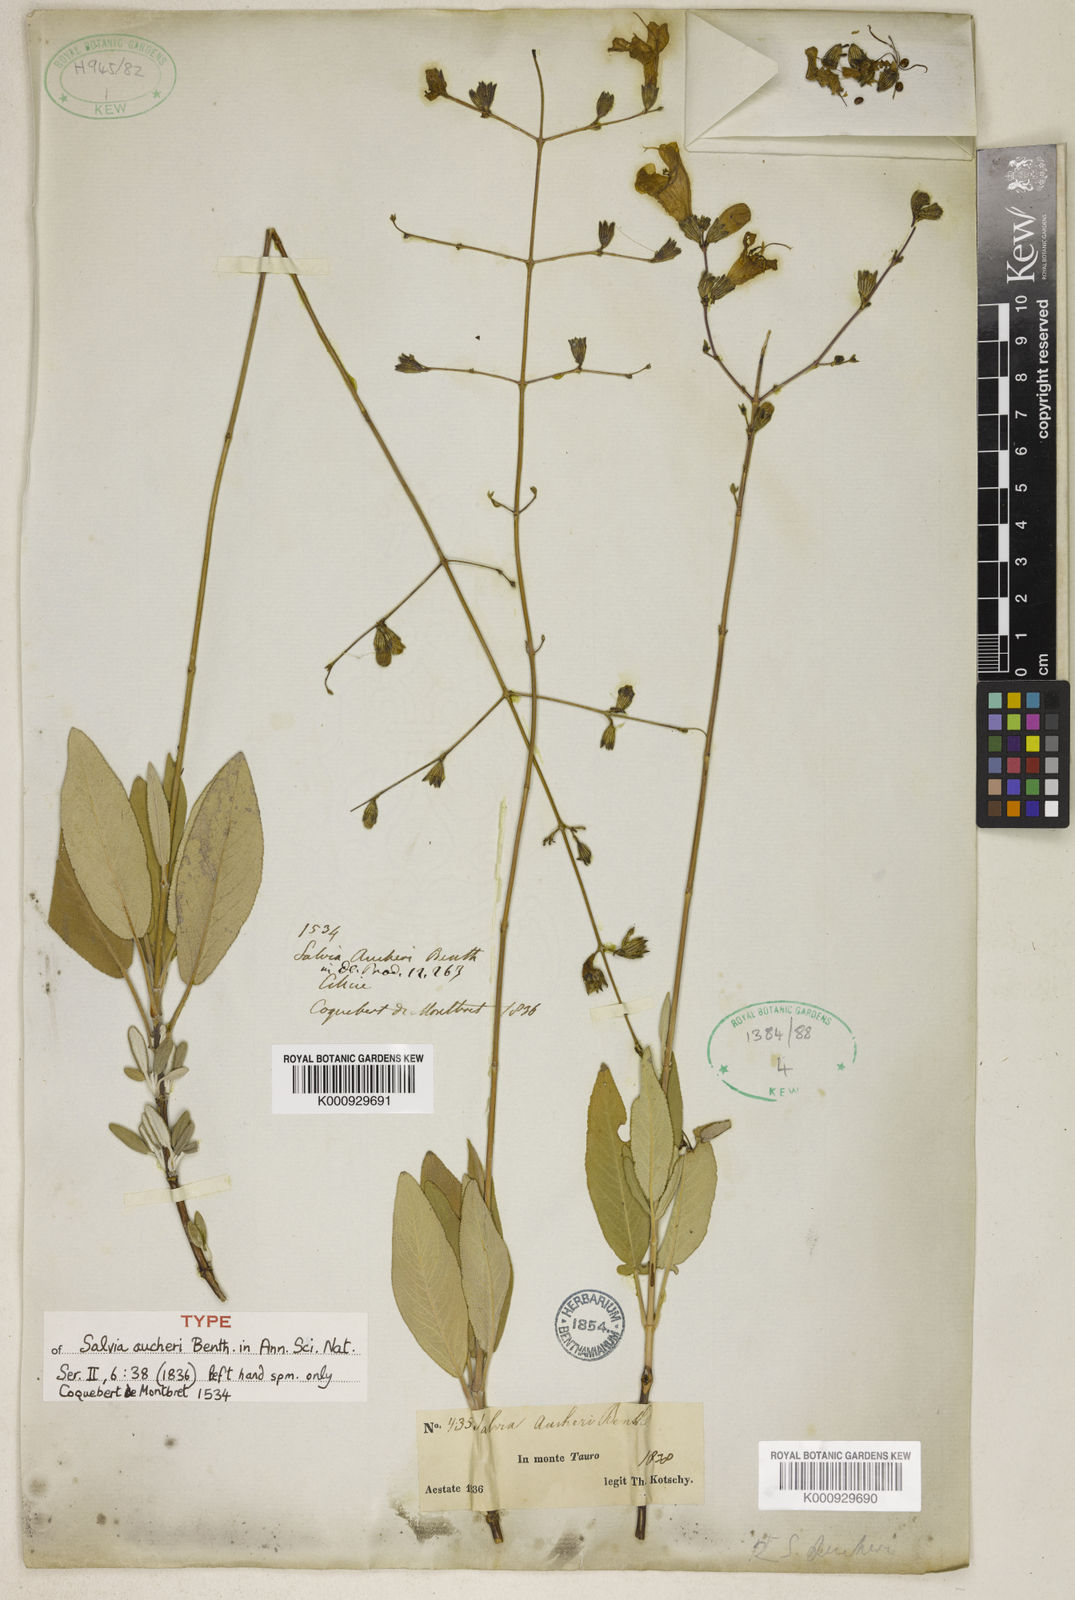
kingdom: Plantae
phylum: Tracheophyta
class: Magnoliopsida
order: Lamiales
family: Lamiaceae
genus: Salvia
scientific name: Salvia aucheri
